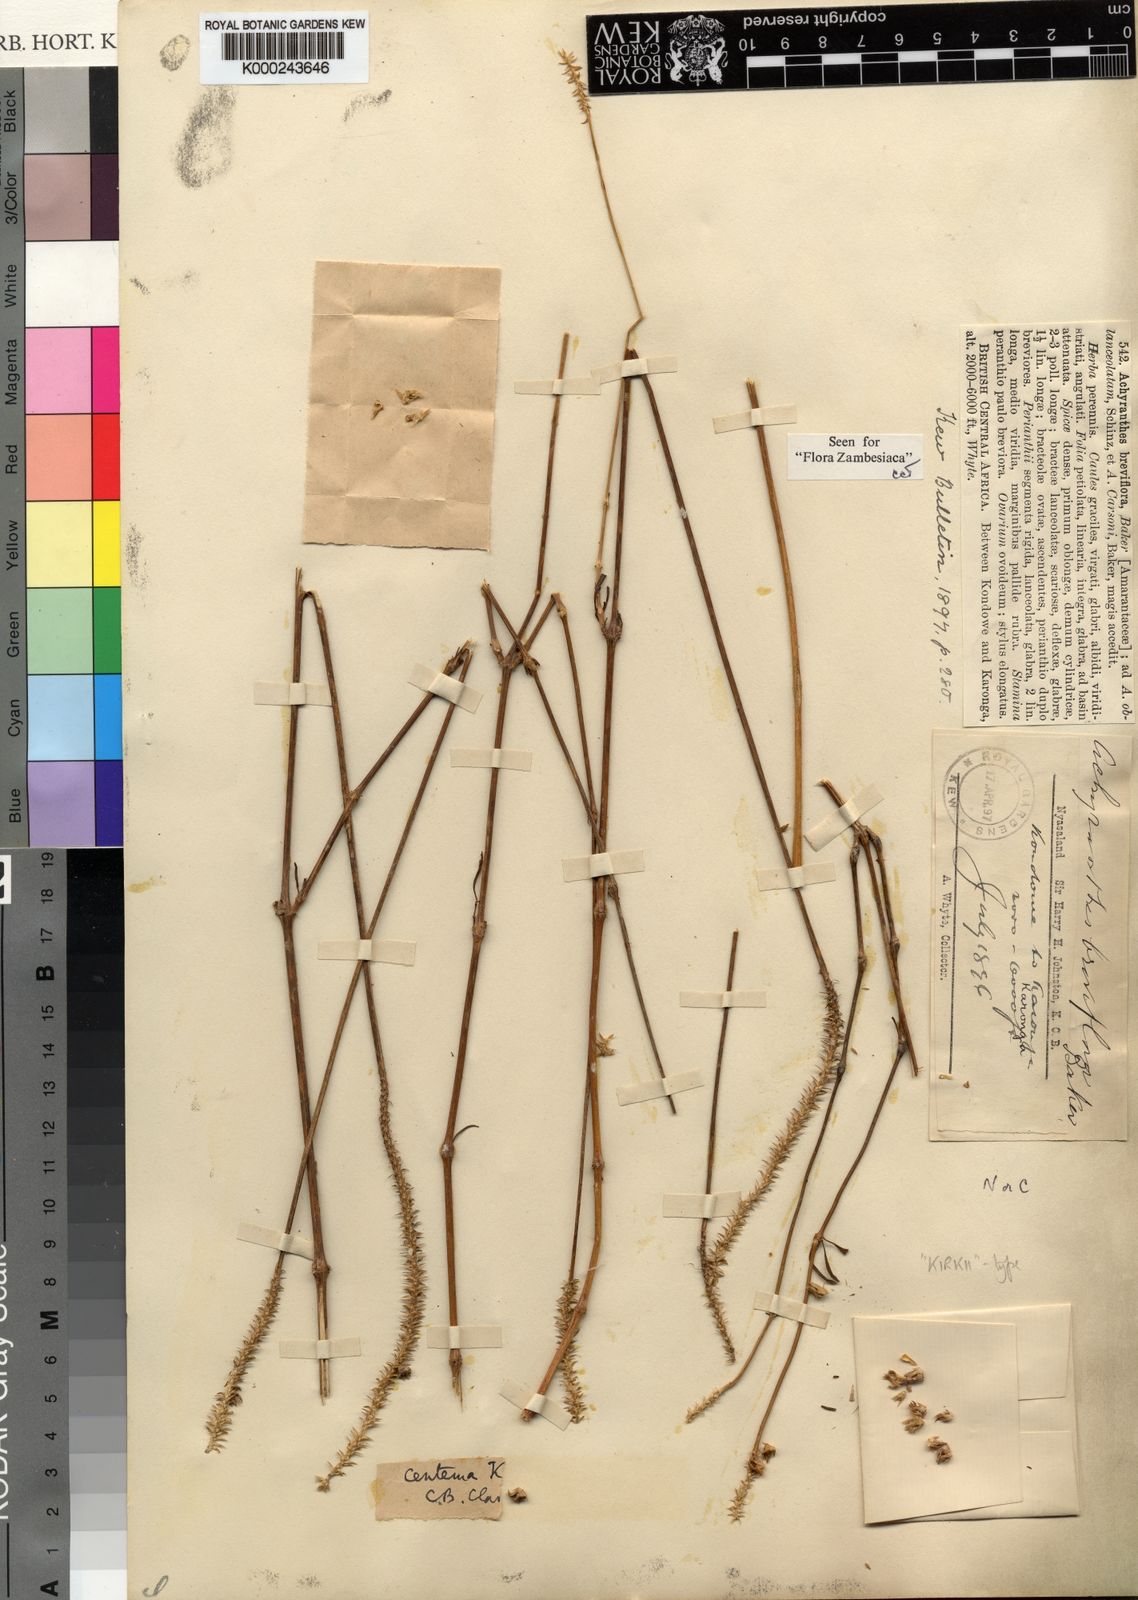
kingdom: Plantae
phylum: Tracheophyta
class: Magnoliopsida
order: Caryophyllales
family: Amaranthaceae
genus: Centemopsis
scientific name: Centemopsis kirkii
